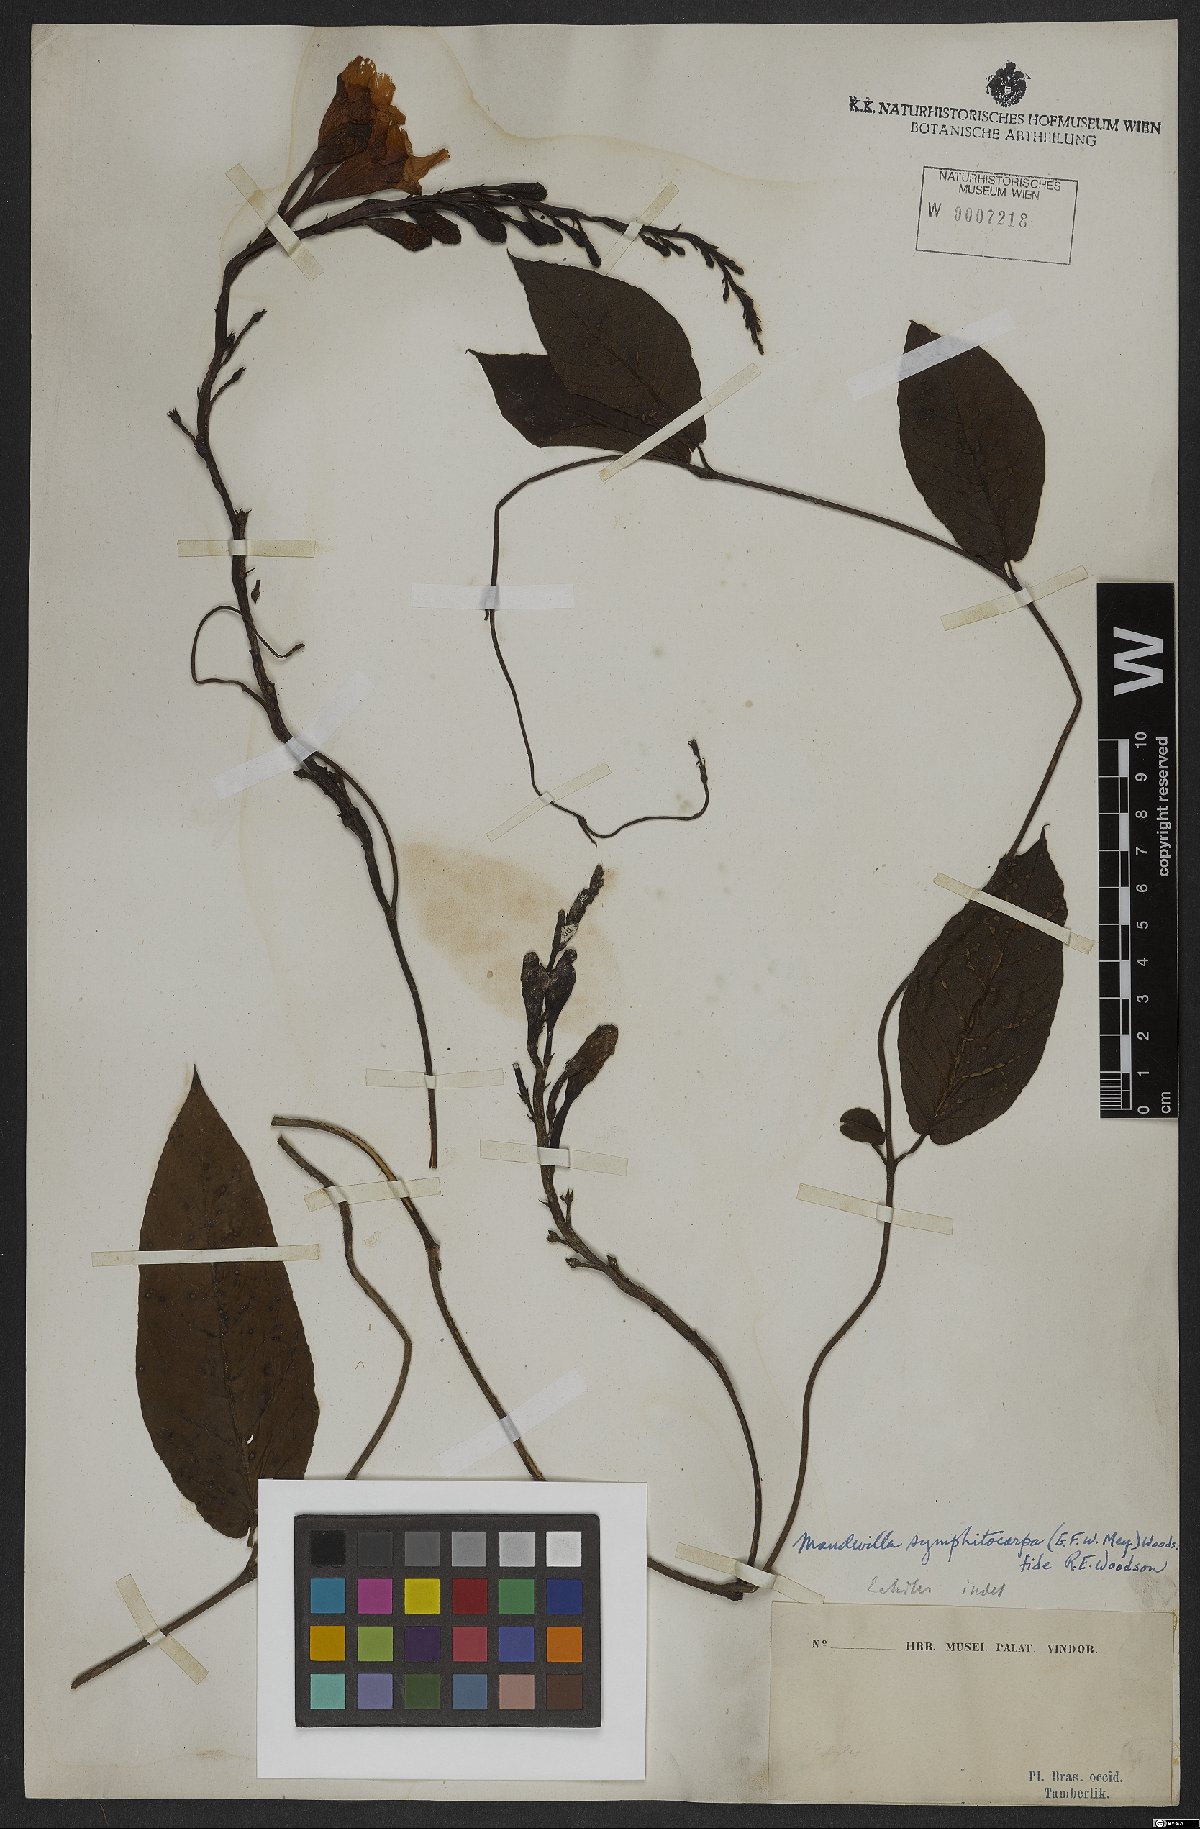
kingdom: Plantae
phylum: Tracheophyta
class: Magnoliopsida
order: Gentianales
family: Apocynaceae
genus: Mandevilla
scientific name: Mandevilla symphytocarpa
